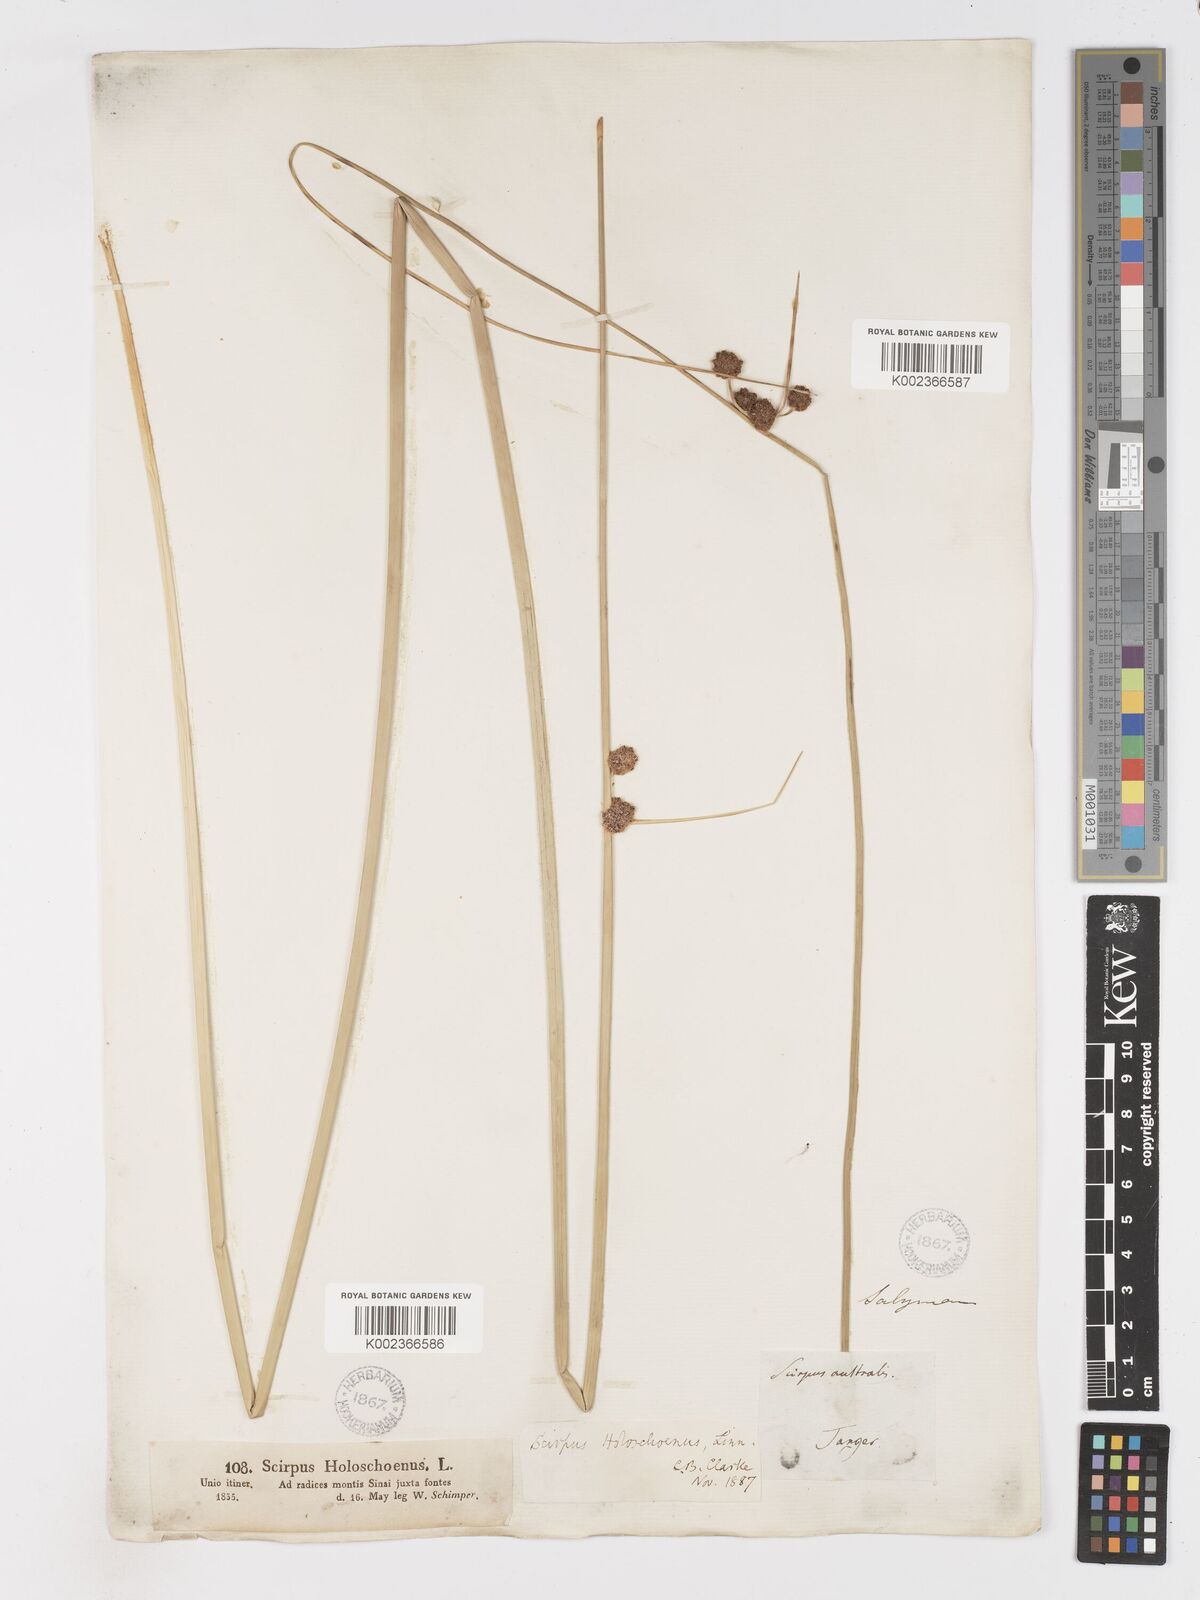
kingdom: Plantae
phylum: Tracheophyta
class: Liliopsida
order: Poales
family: Cyperaceae
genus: Scirpoides
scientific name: Scirpoides holoschoenus
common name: Round-headed club-rush
